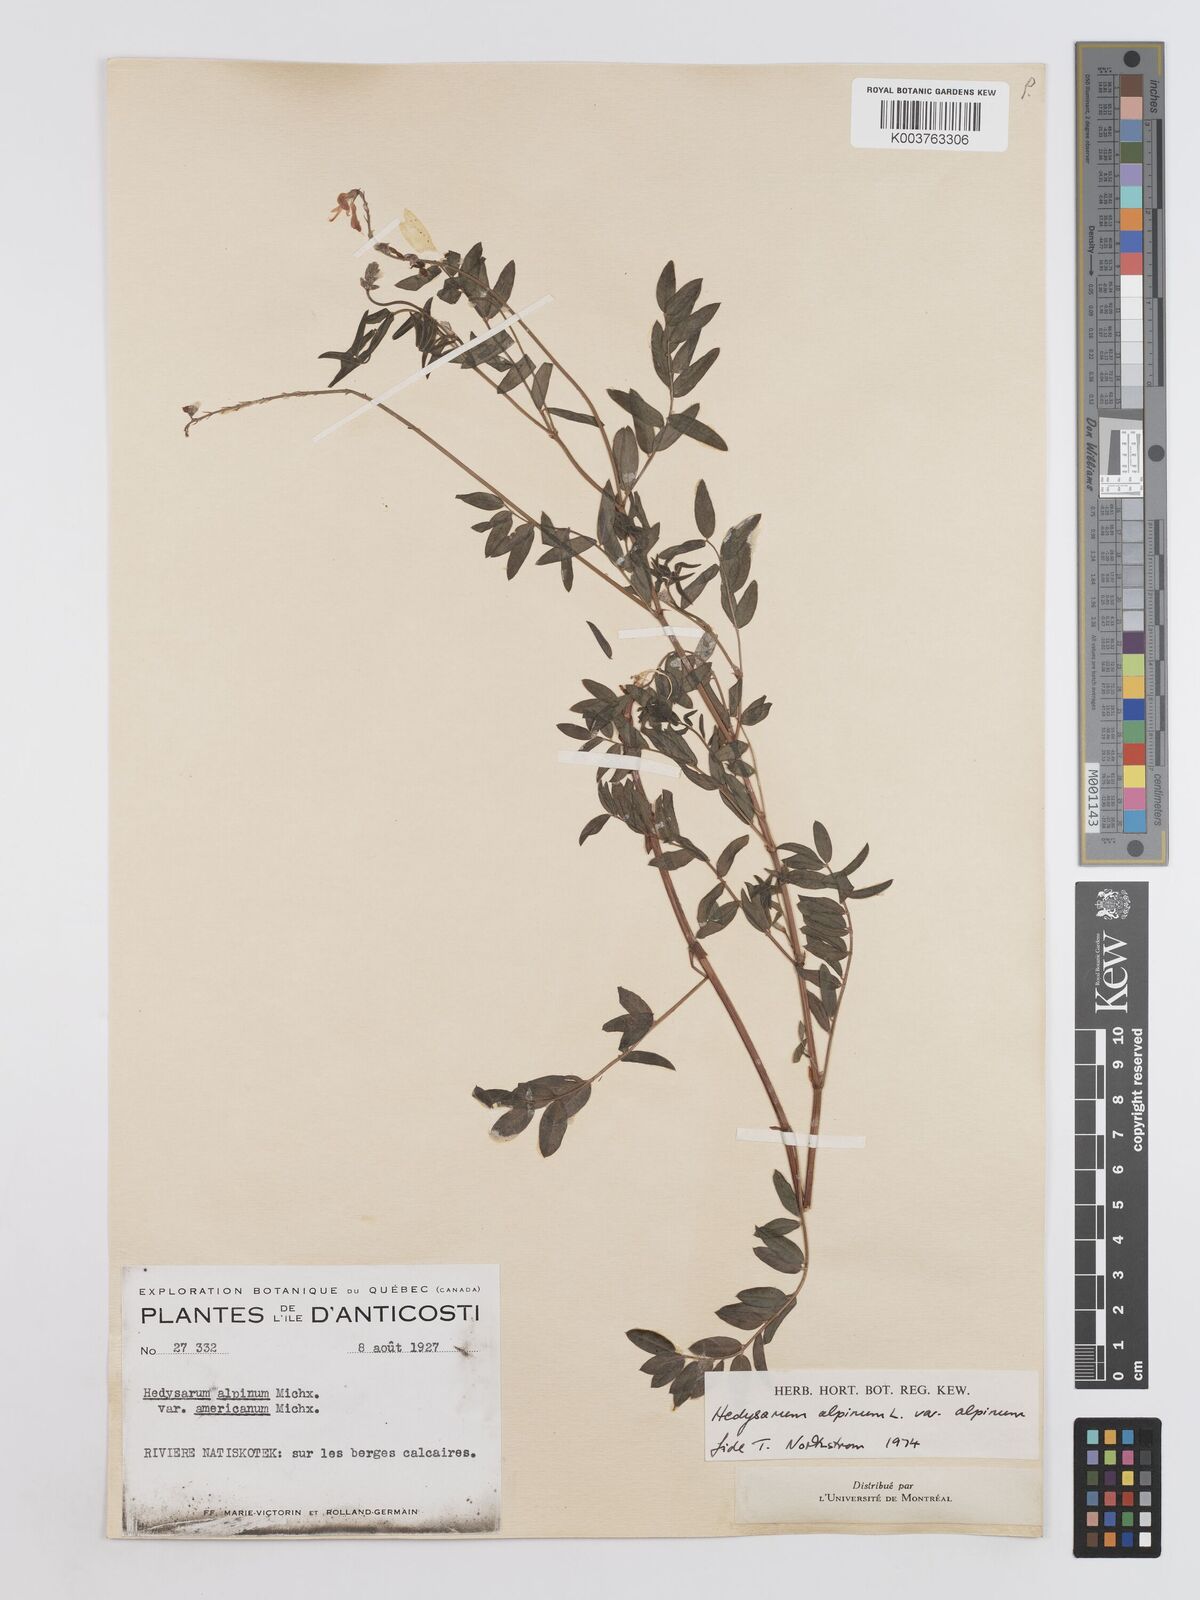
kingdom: Plantae
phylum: Tracheophyta
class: Magnoliopsida
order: Fabales
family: Fabaceae
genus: Hedysarum
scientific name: Hedysarum alpinum
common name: Alpine sweet-vetch
